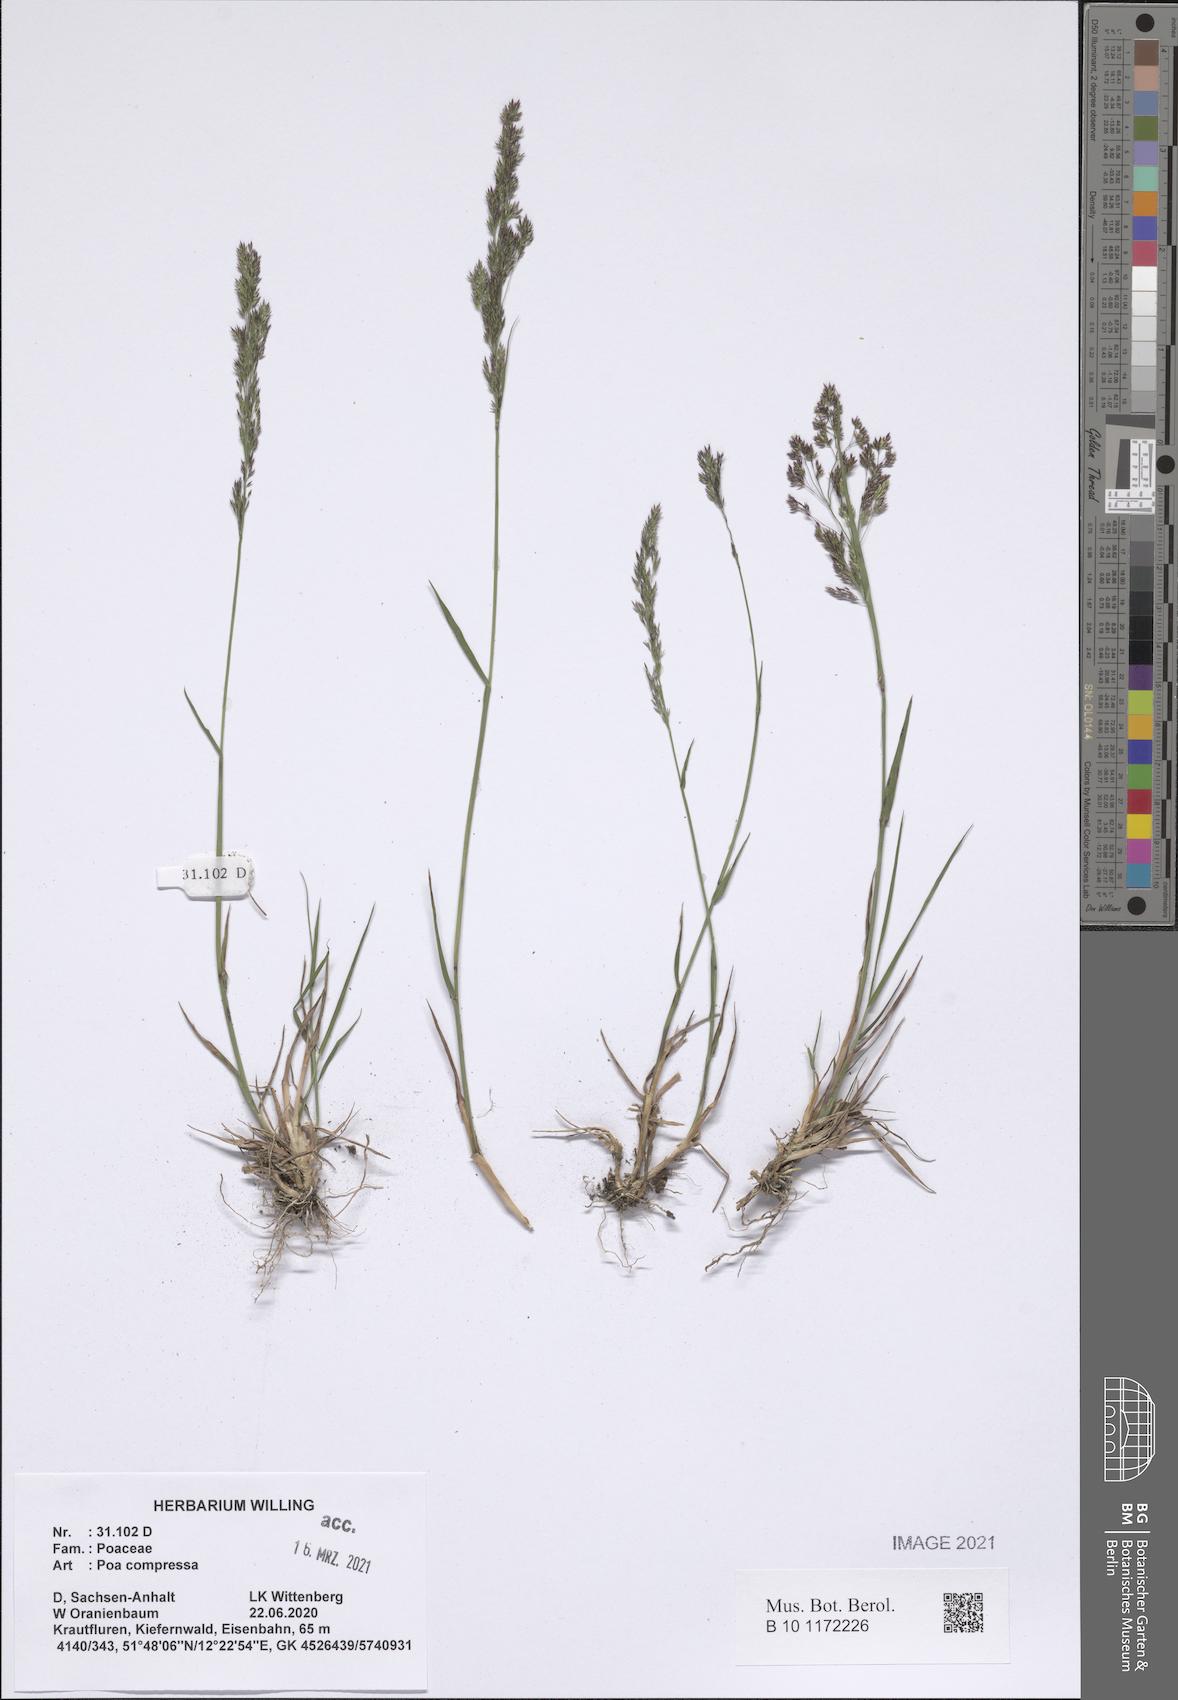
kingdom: Plantae
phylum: Tracheophyta
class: Liliopsida
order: Poales
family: Poaceae
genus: Poa
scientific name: Poa compressa
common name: Canada bluegrass
